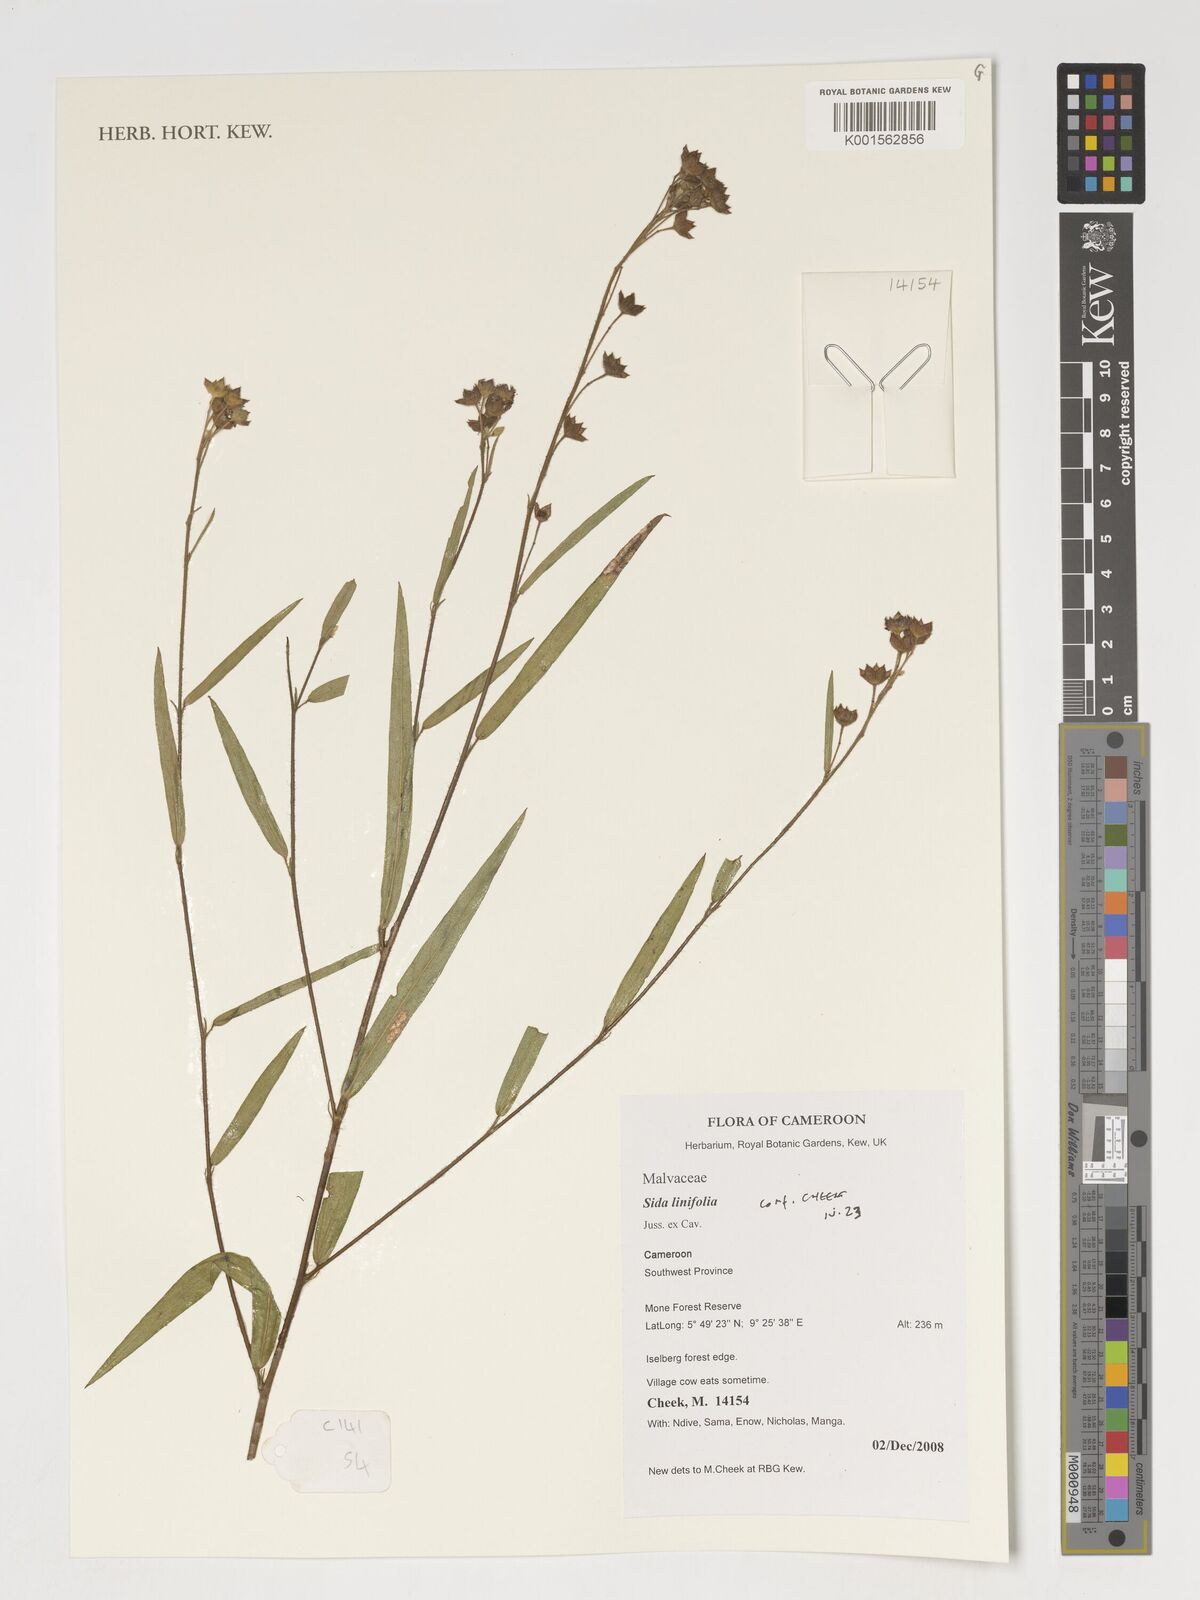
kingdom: Plantae
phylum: Tracheophyta
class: Magnoliopsida
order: Malvales
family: Malvaceae
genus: Sida
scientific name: Sida linifolia
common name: Flaxleaf fanpetals
